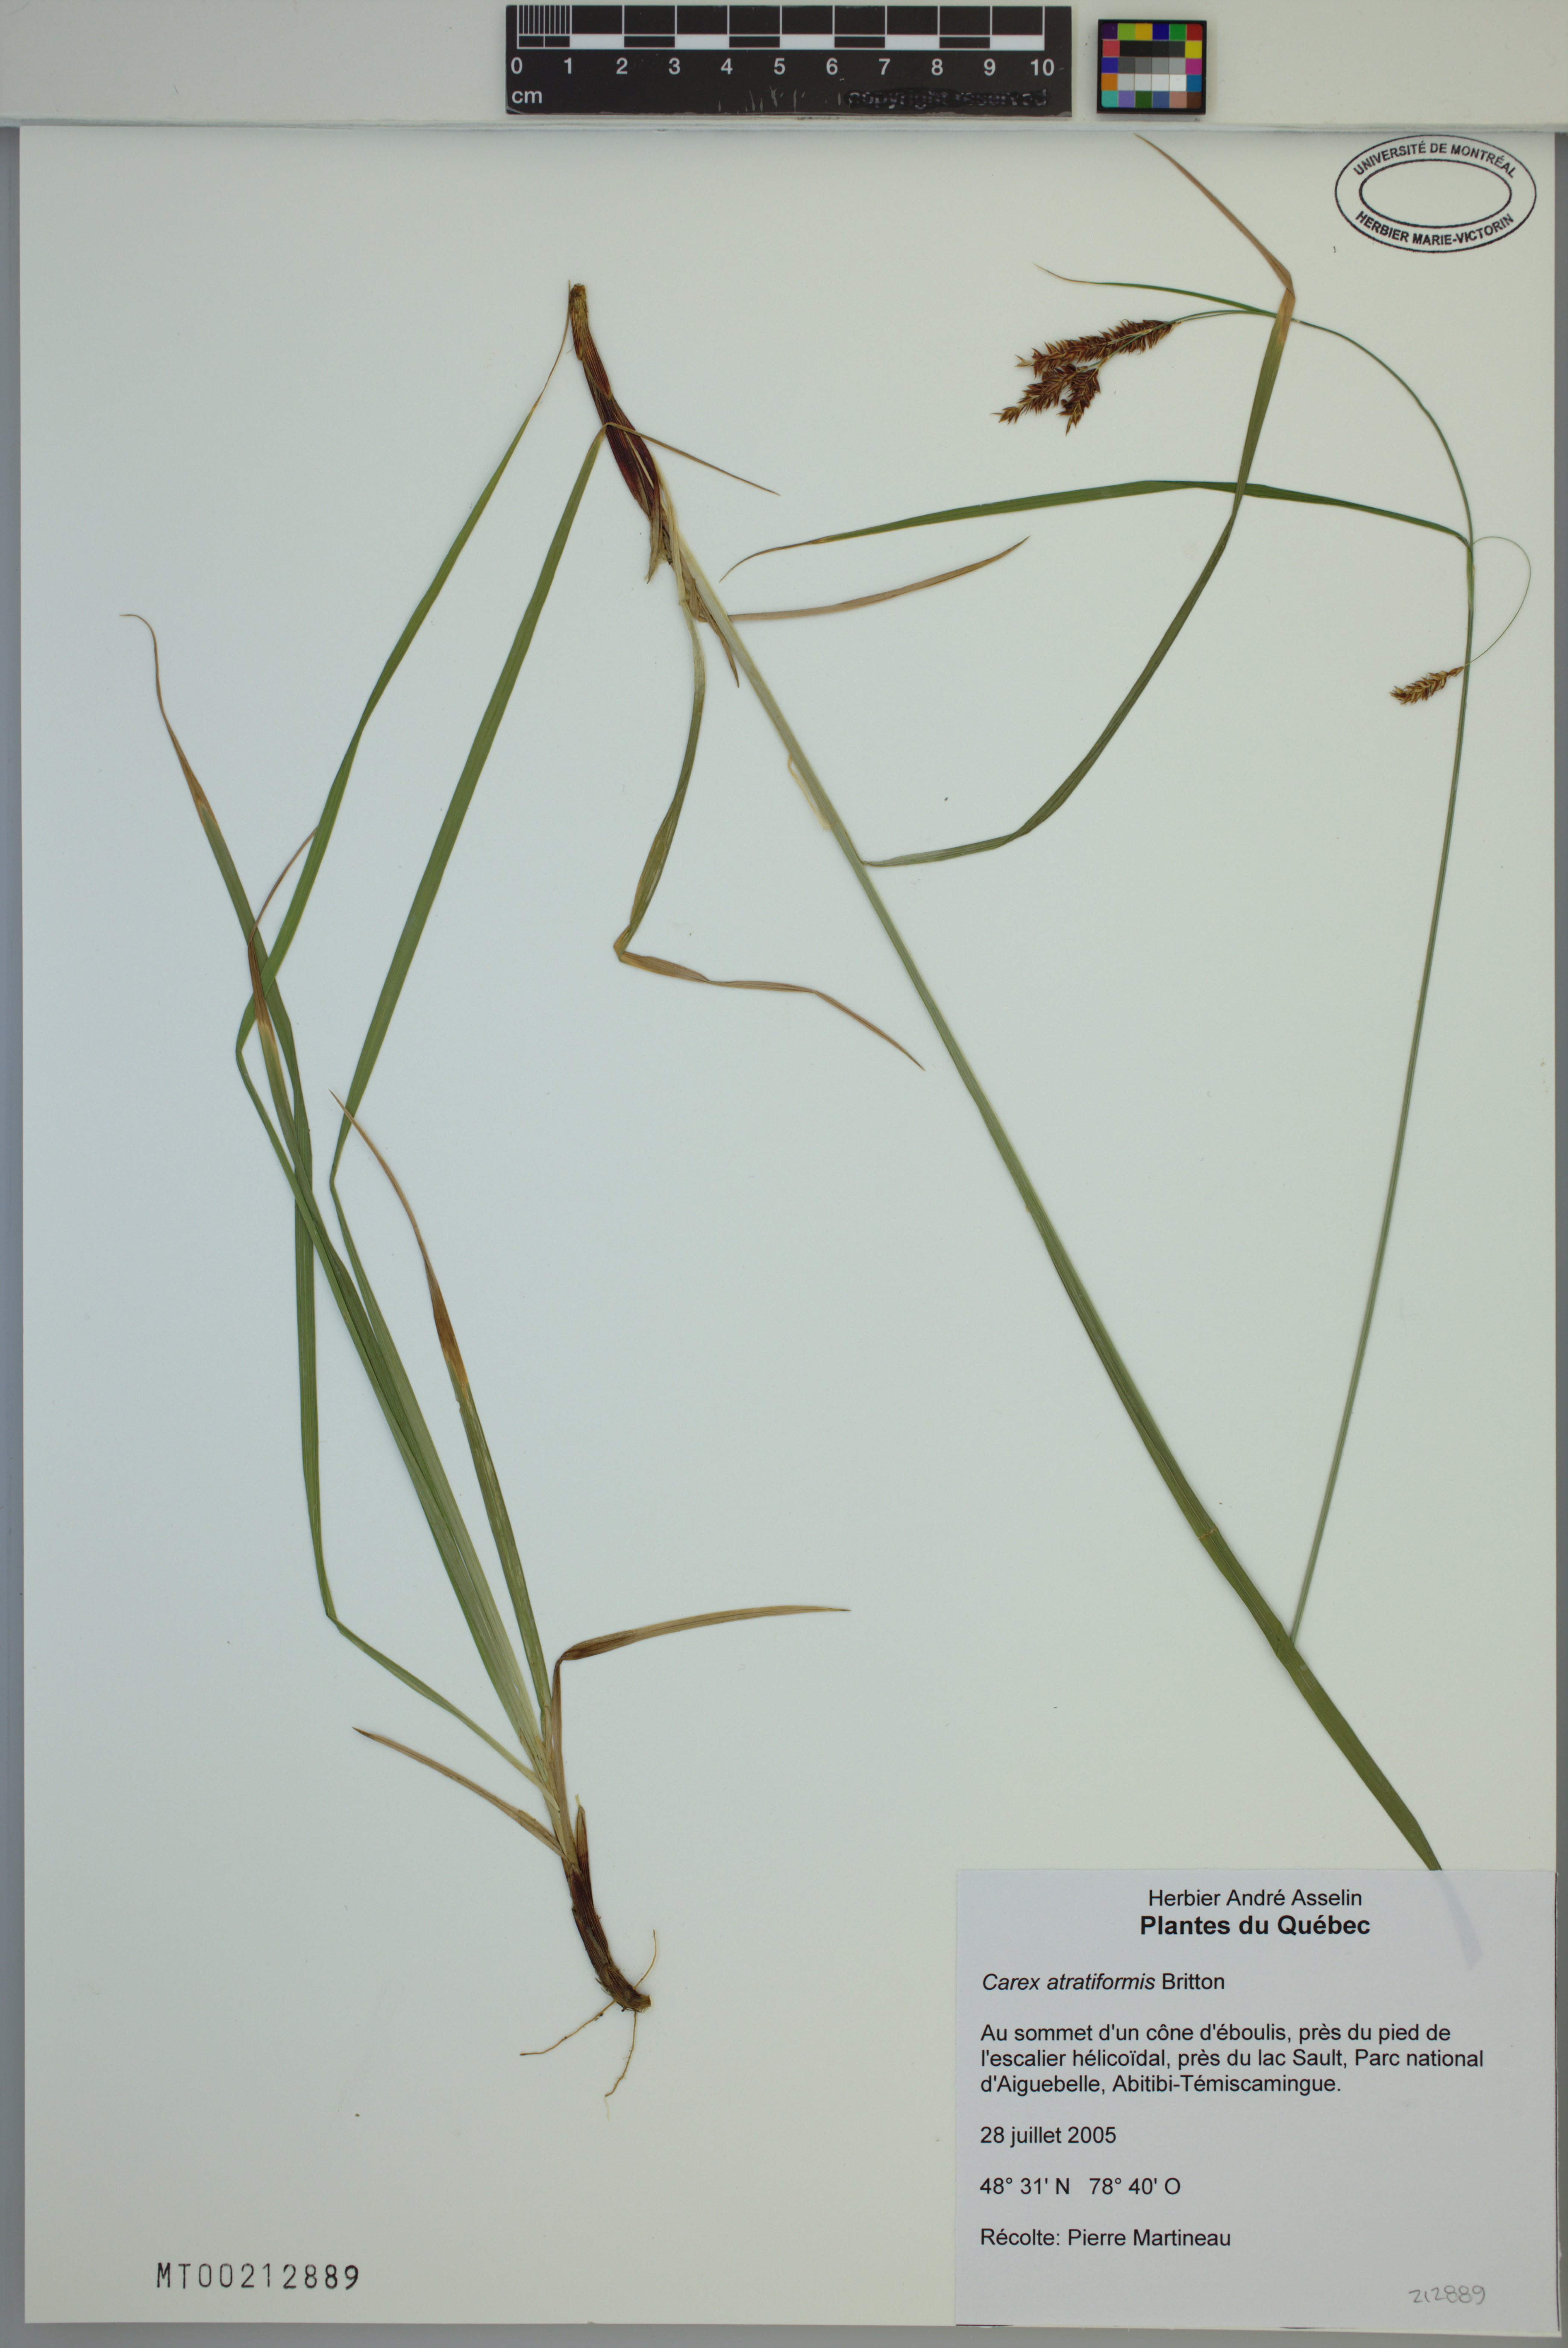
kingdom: Plantae
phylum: Tracheophyta
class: Liliopsida
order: Poales
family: Cyperaceae
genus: Carex
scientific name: Carex atratiformis
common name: Black sedge
